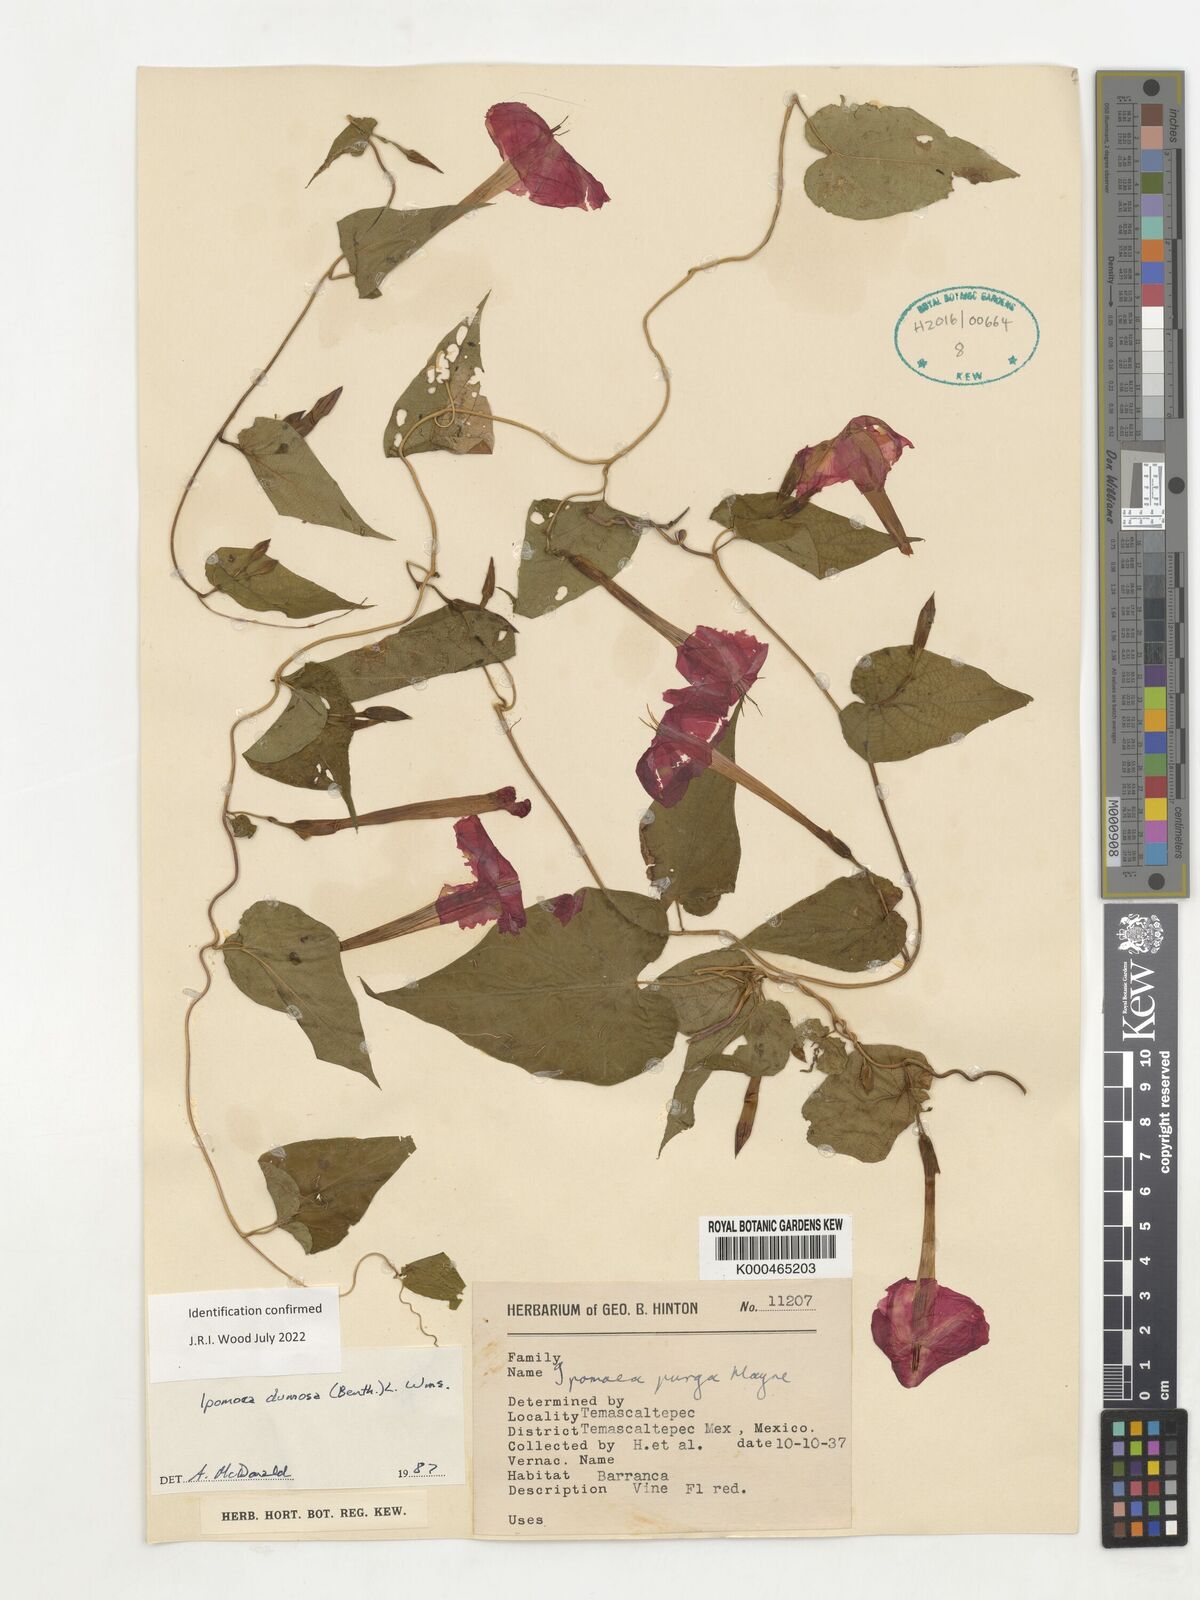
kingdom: Plantae
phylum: Tracheophyta
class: Magnoliopsida
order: Solanales
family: Convolvulaceae
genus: Ipomoea
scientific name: Ipomoea dumosa
